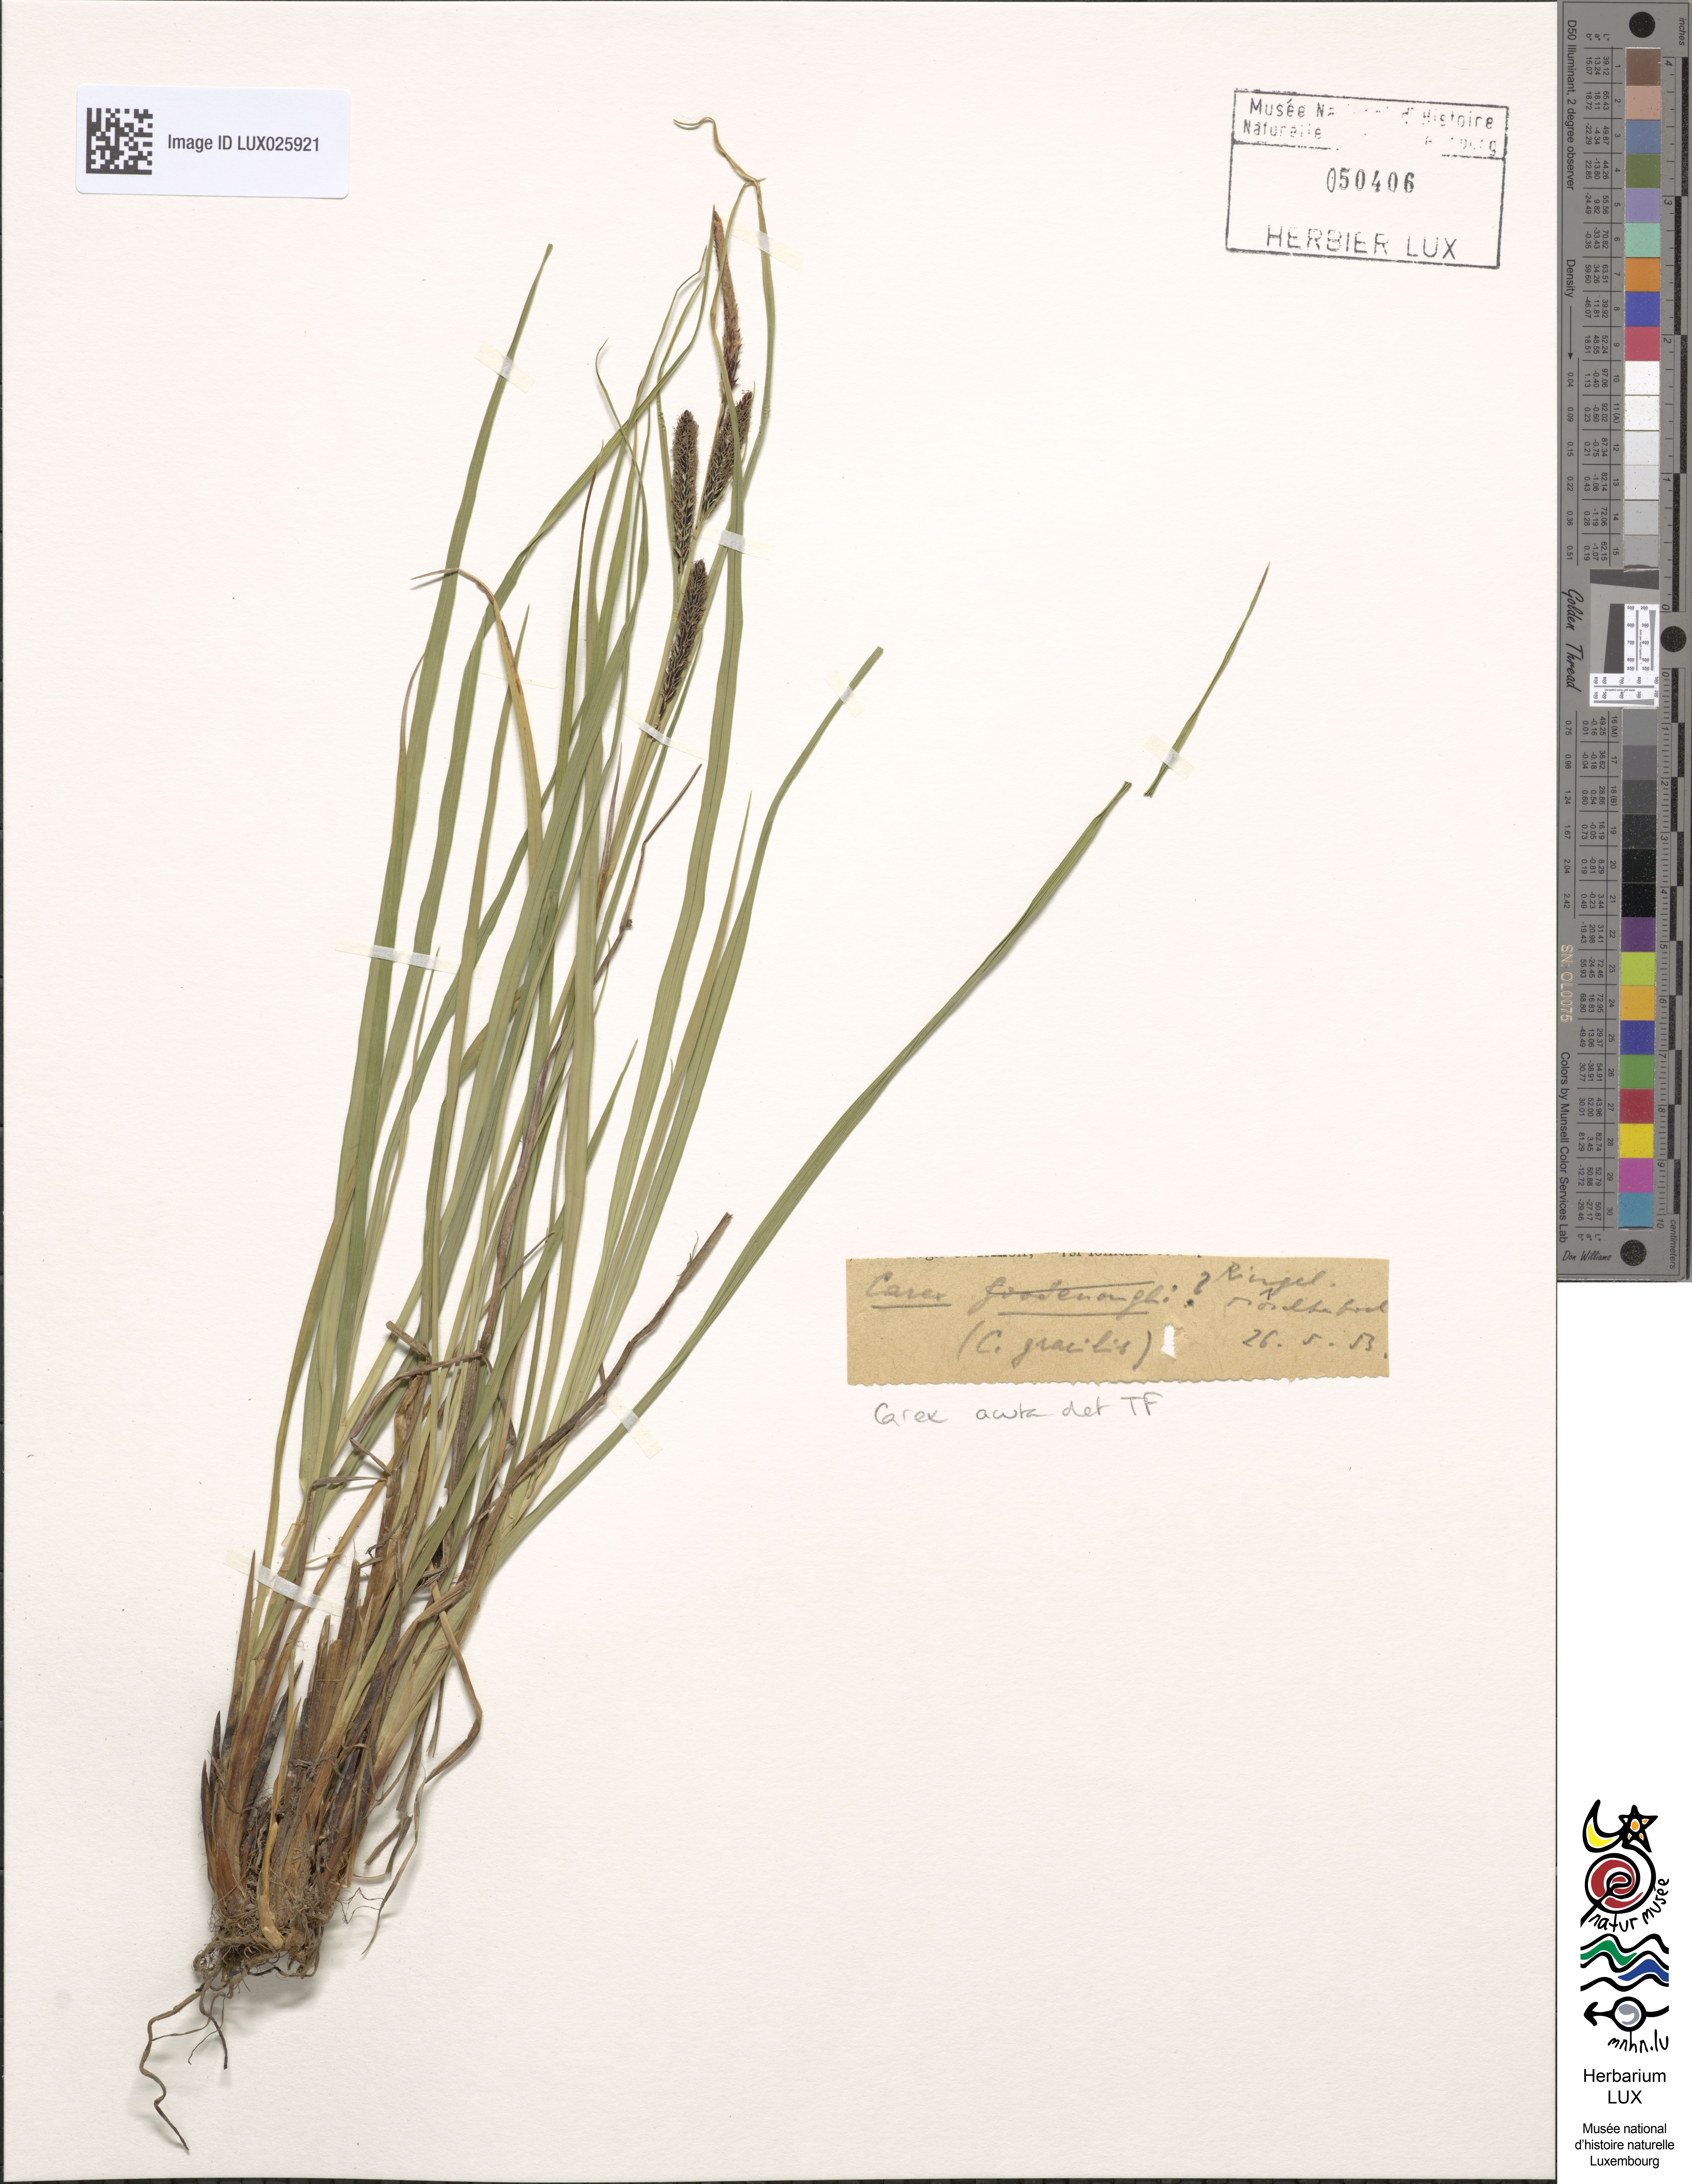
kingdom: Plantae
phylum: Tracheophyta
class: Liliopsida
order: Poales
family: Cyperaceae
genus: Carex
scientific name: Carex acuta
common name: Slender tufted-sedge
